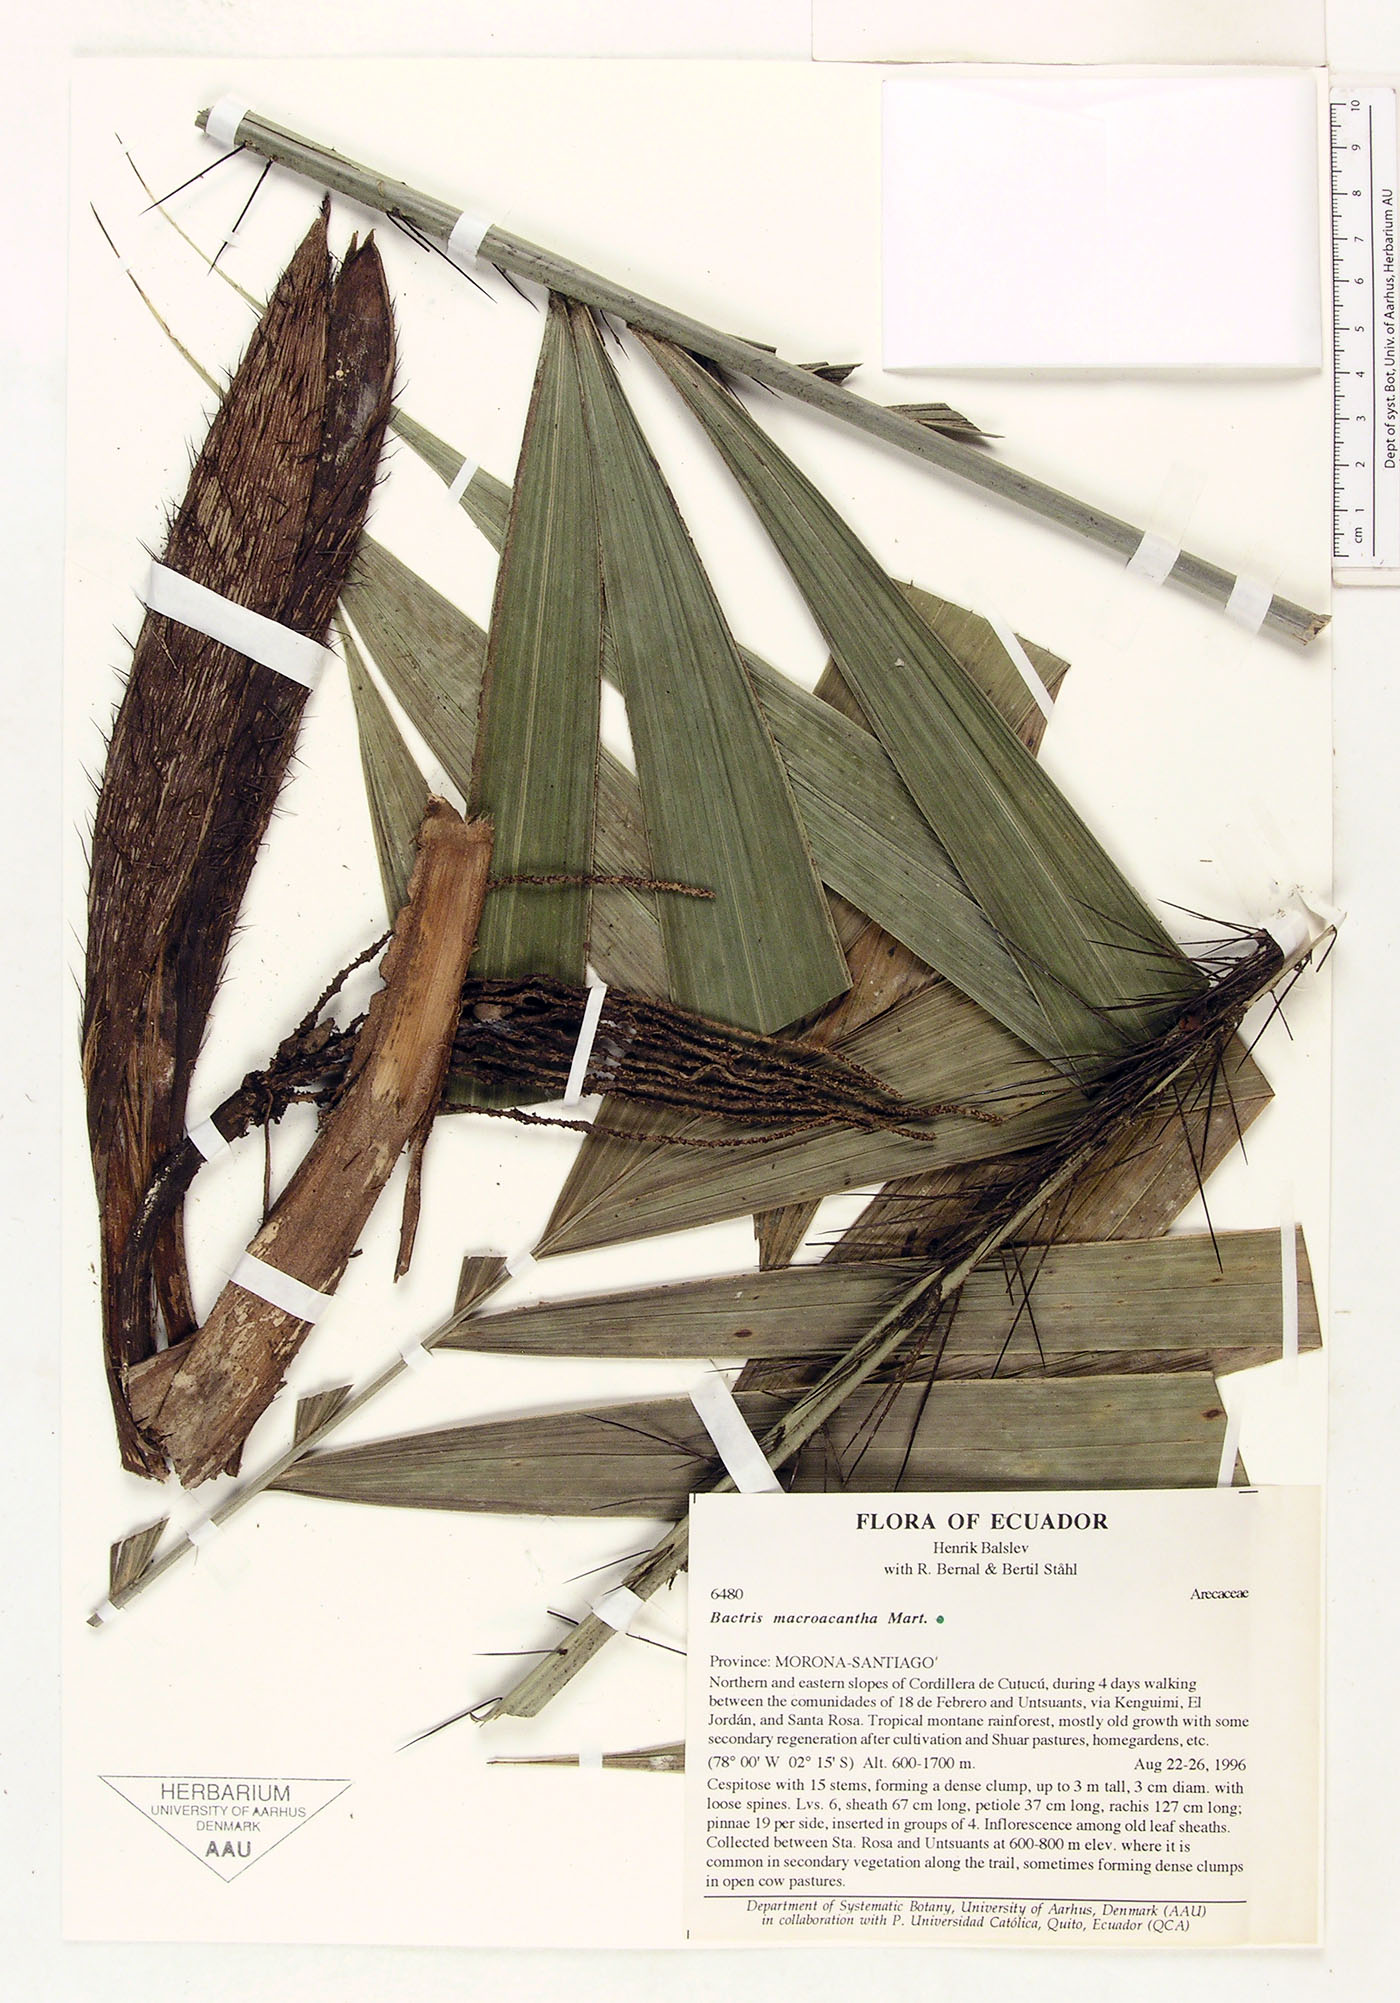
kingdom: Plantae
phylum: Tracheophyta
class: Liliopsida
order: Arecales
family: Arecaceae
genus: Bactris
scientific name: Bactris macroacantha
